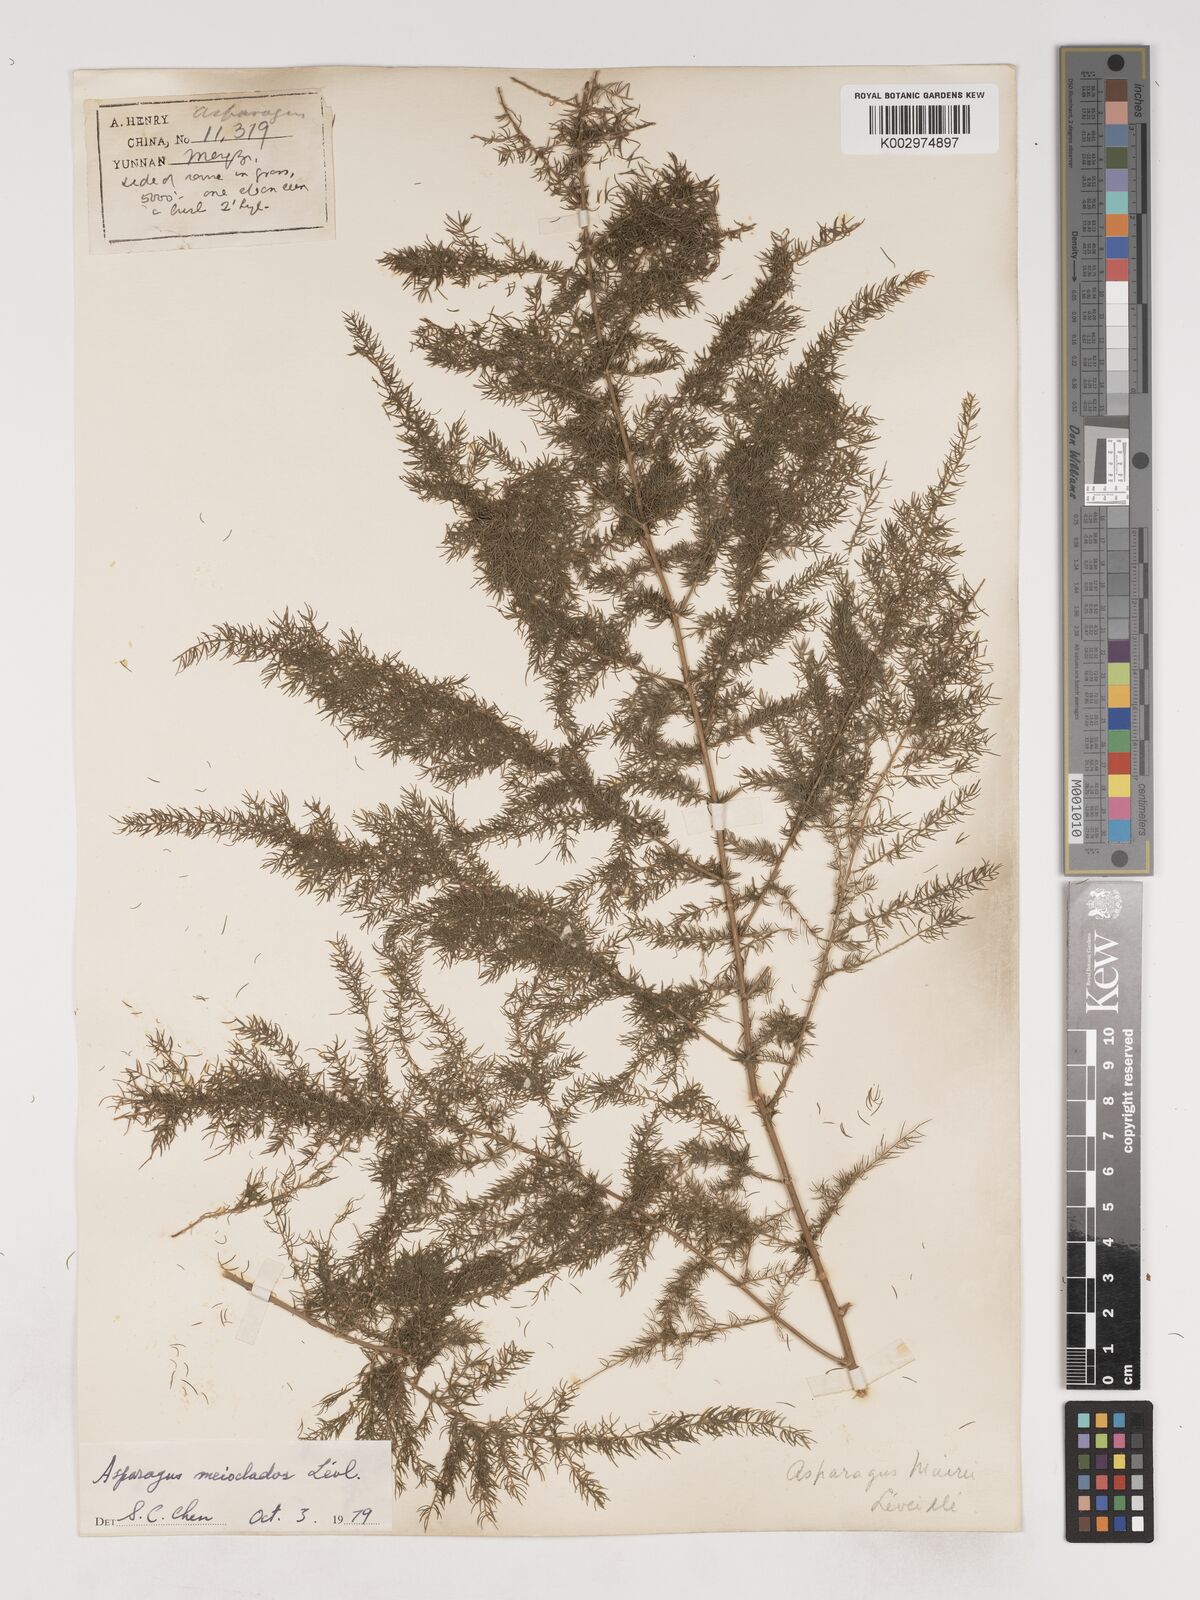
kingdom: Plantae
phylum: Tracheophyta
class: Liliopsida
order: Asparagales
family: Asparagaceae
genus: Asparagus
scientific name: Asparagus meioclados
